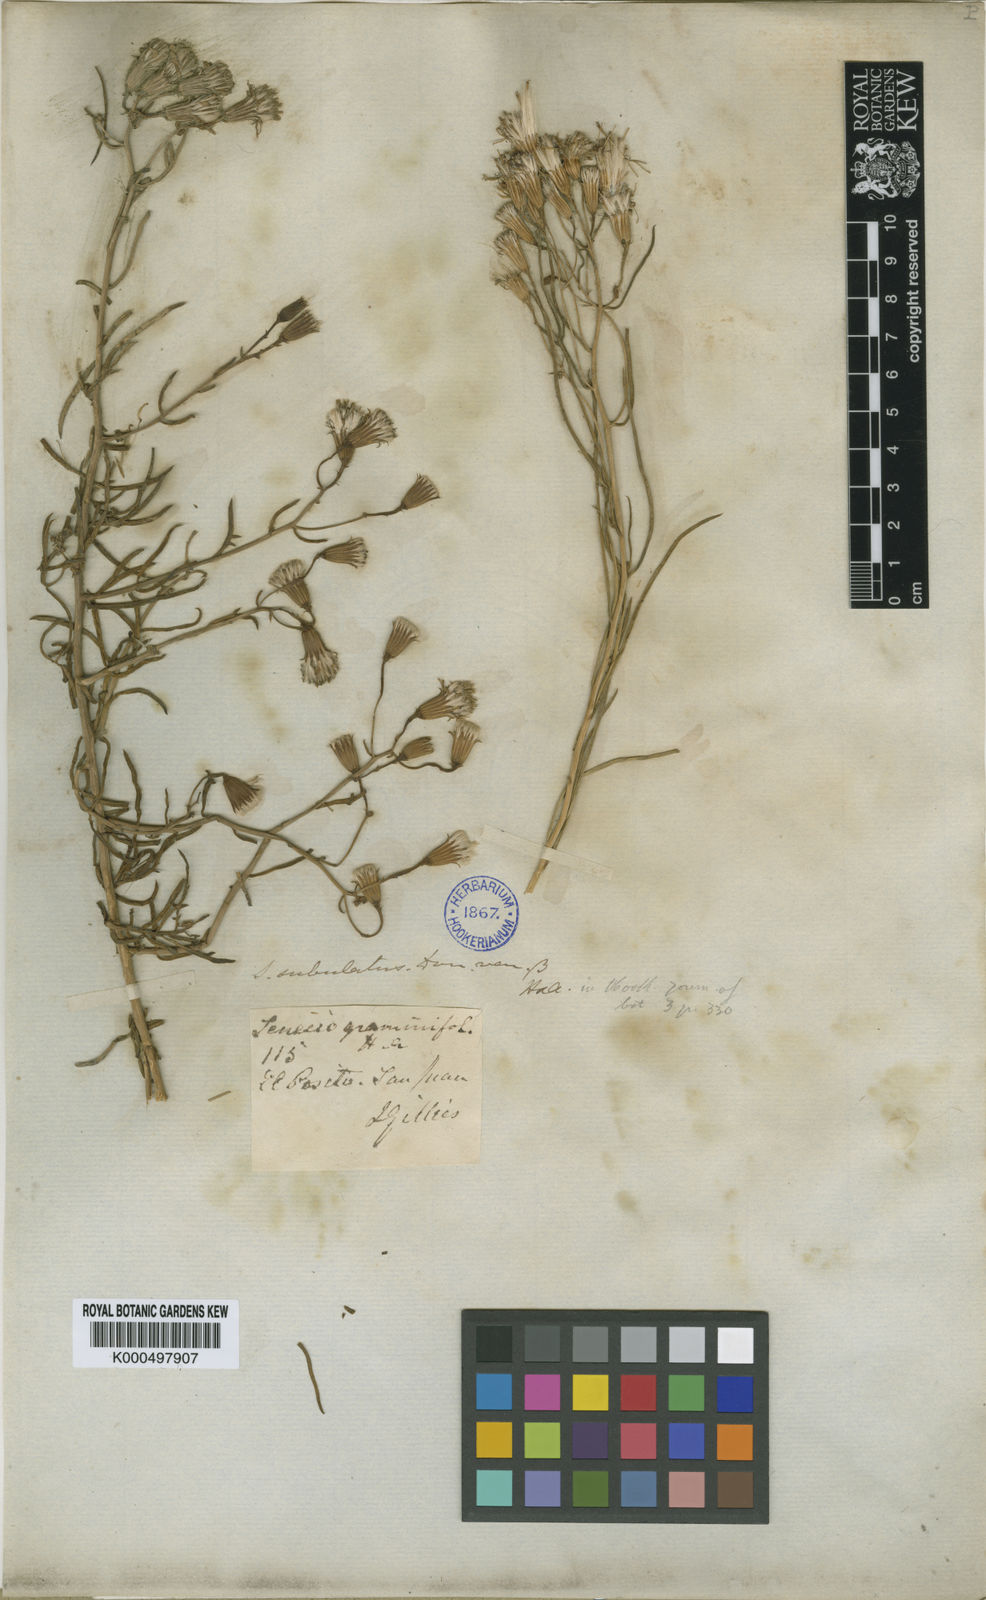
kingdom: Plantae
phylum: Tracheophyta
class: Magnoliopsida
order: Asterales
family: Asteraceae
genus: Senecio
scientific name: Senecio subulatus
